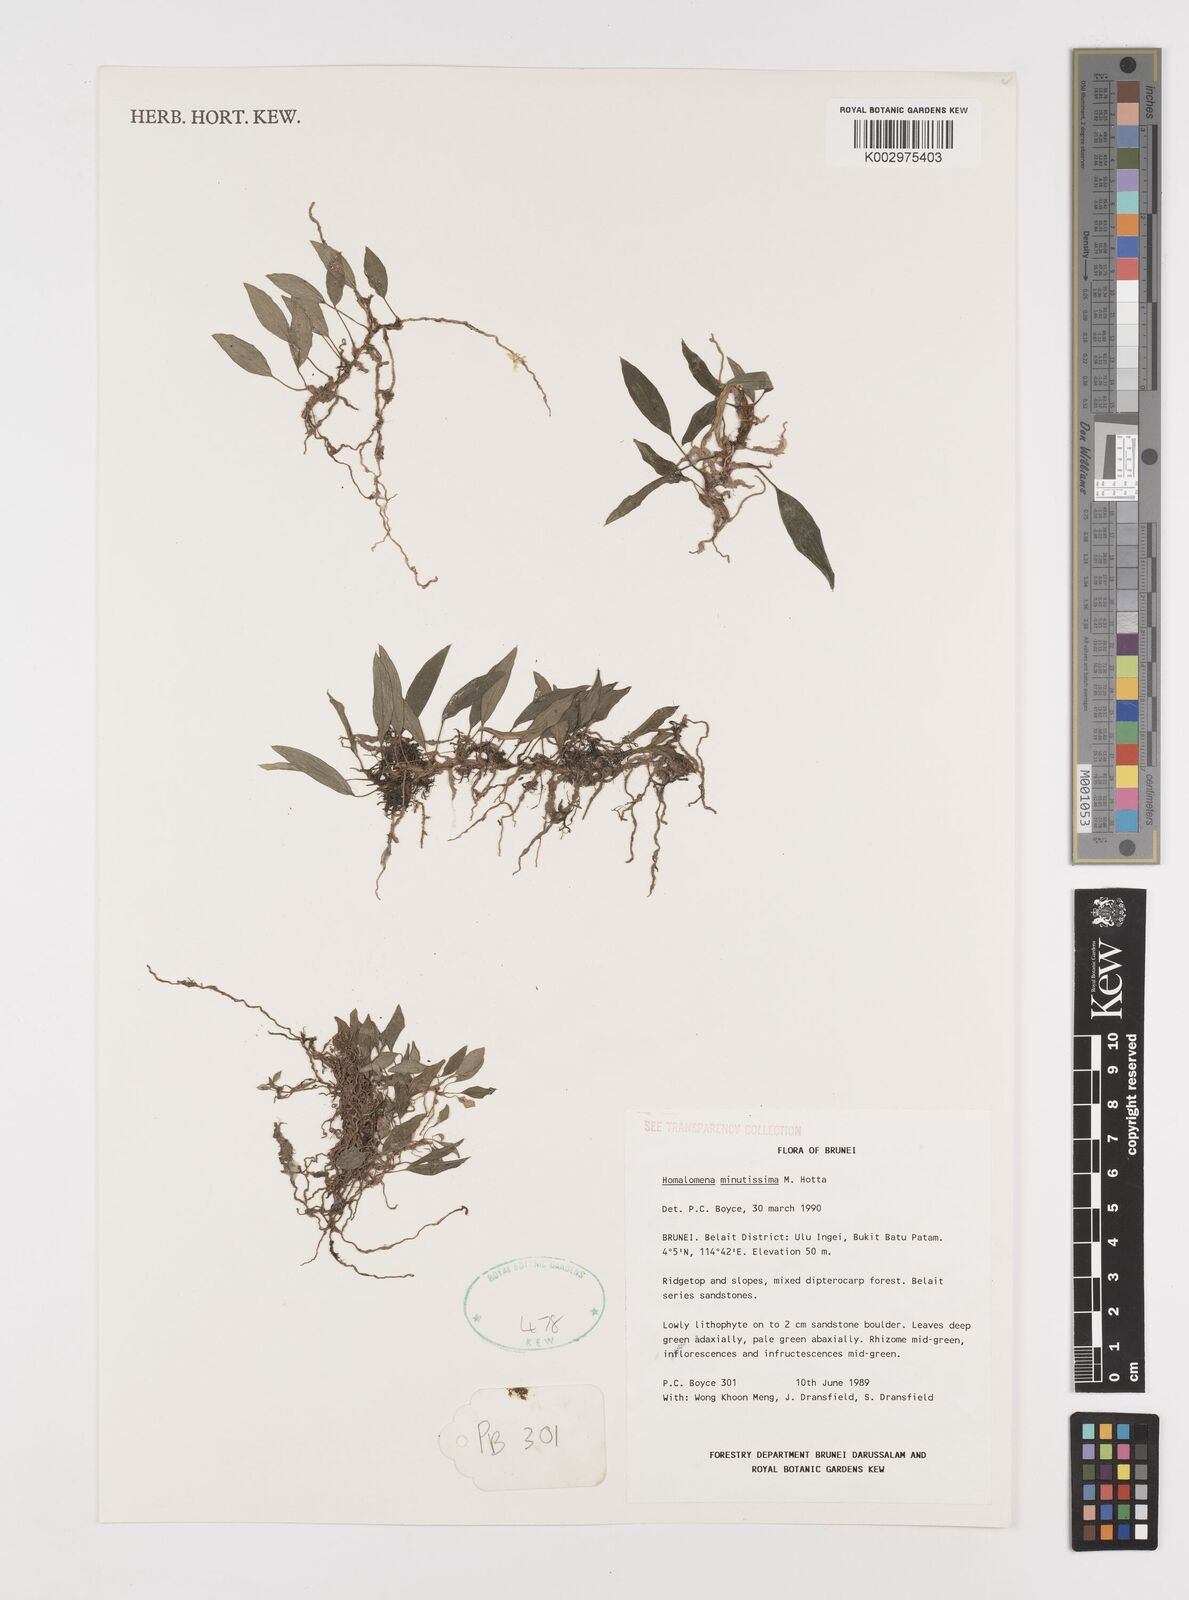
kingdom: Plantae
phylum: Tracheophyta
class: Liliopsida
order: Alismatales
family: Araceae
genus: Homalomena
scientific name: Homalomena minutissima
